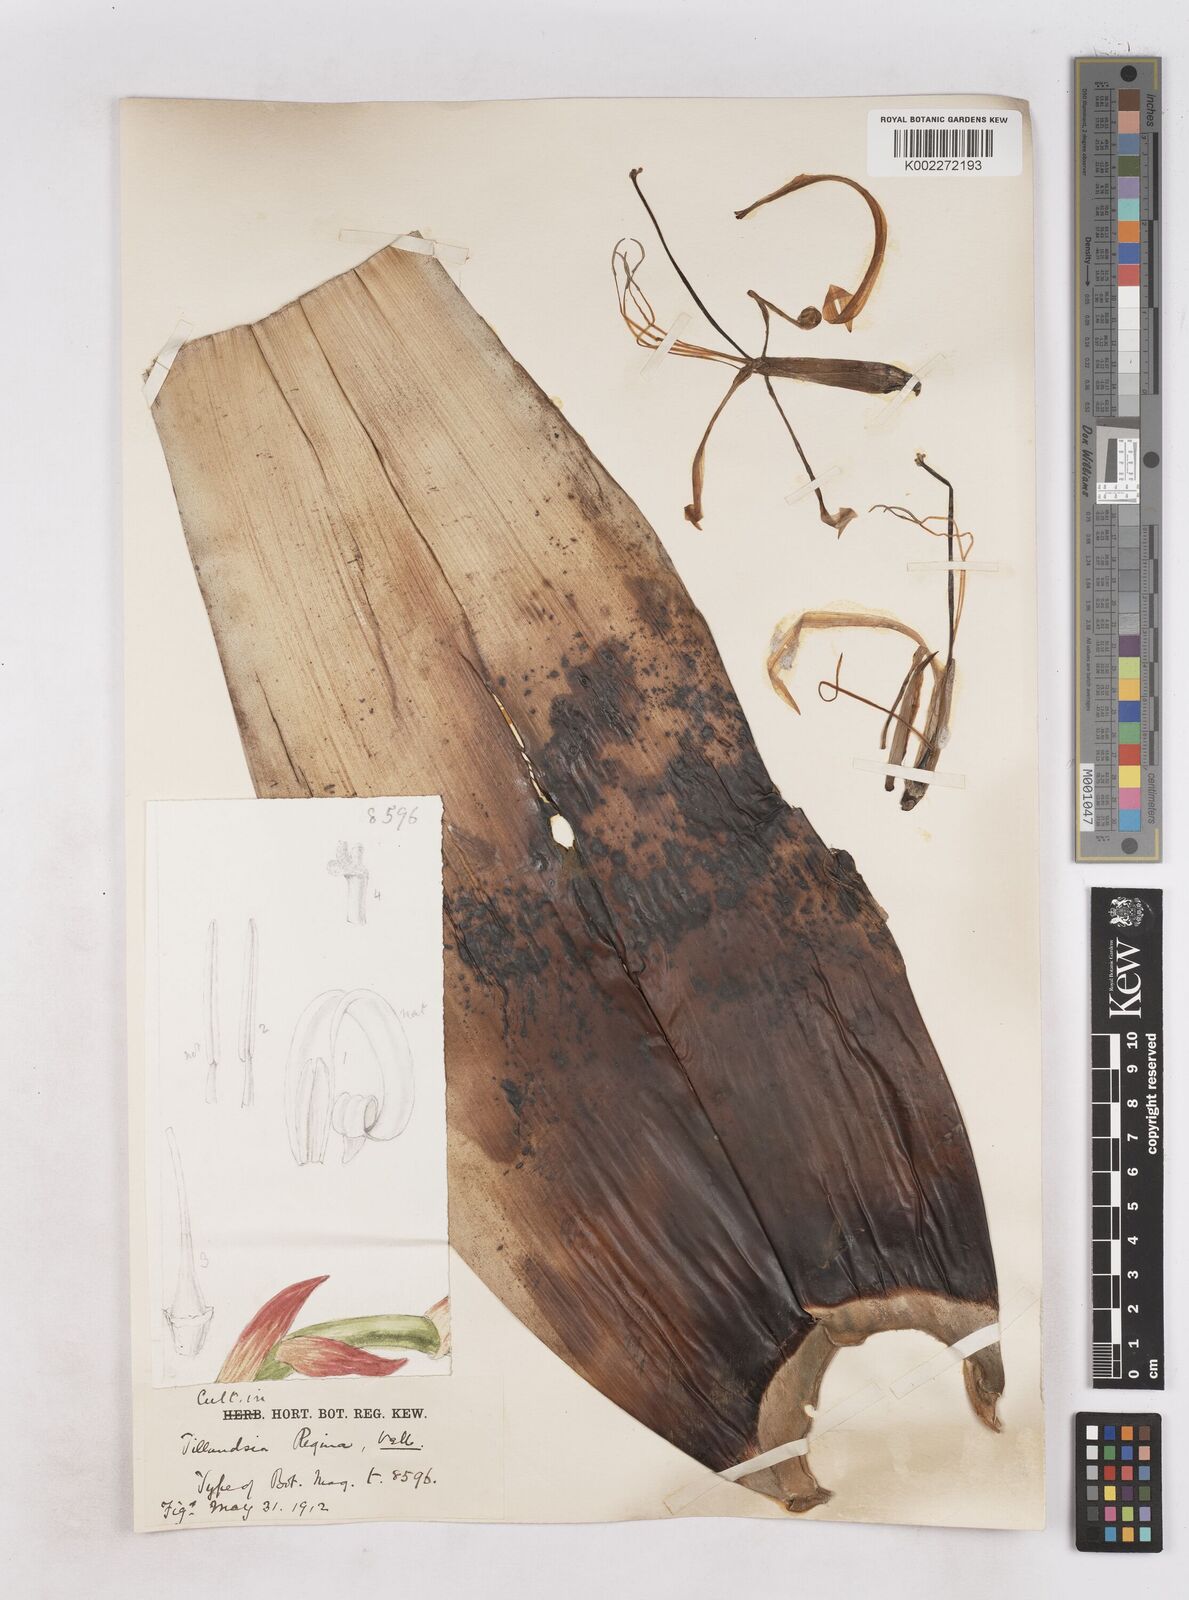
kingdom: Plantae
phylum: Tracheophyta
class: Liliopsida
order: Poales
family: Bromeliaceae
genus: Alcantarea
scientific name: Alcantarea regina
